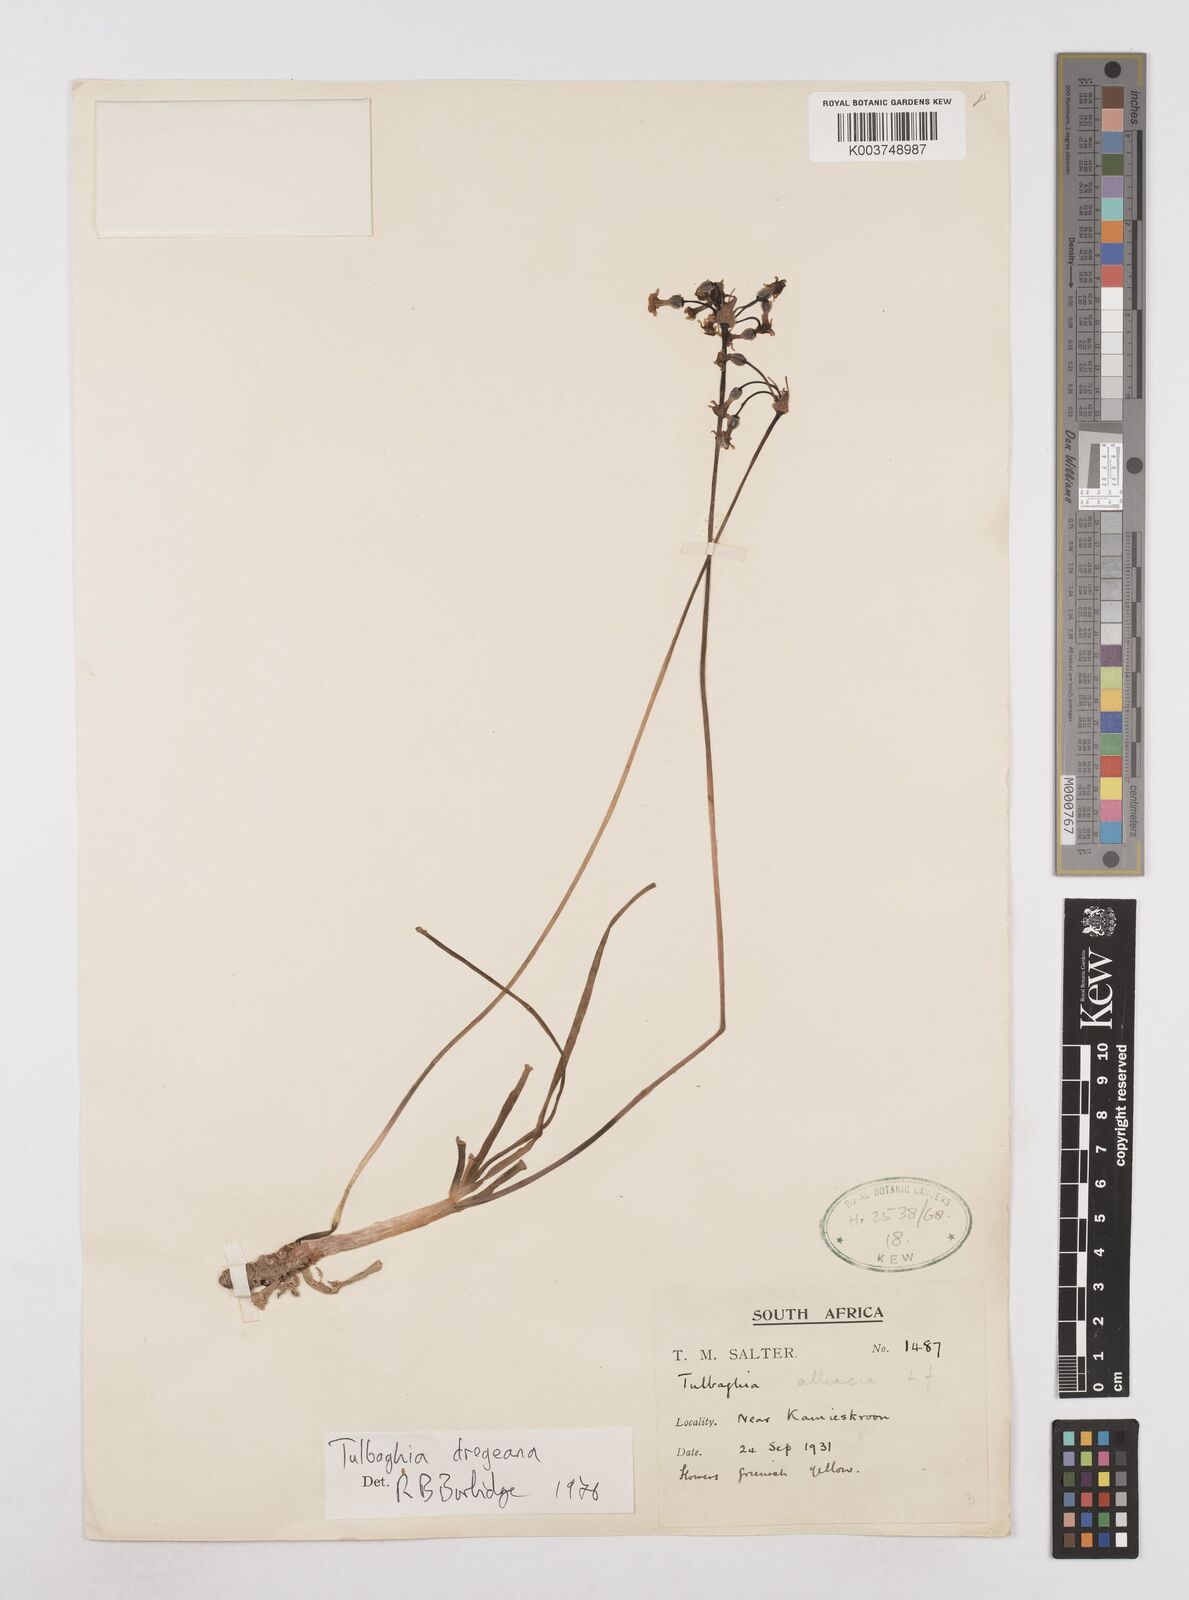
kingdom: Plantae
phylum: Tracheophyta
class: Liliopsida
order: Asparagales
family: Amaryllidaceae
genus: Tulbaghia
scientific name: Tulbaghia dregeana
